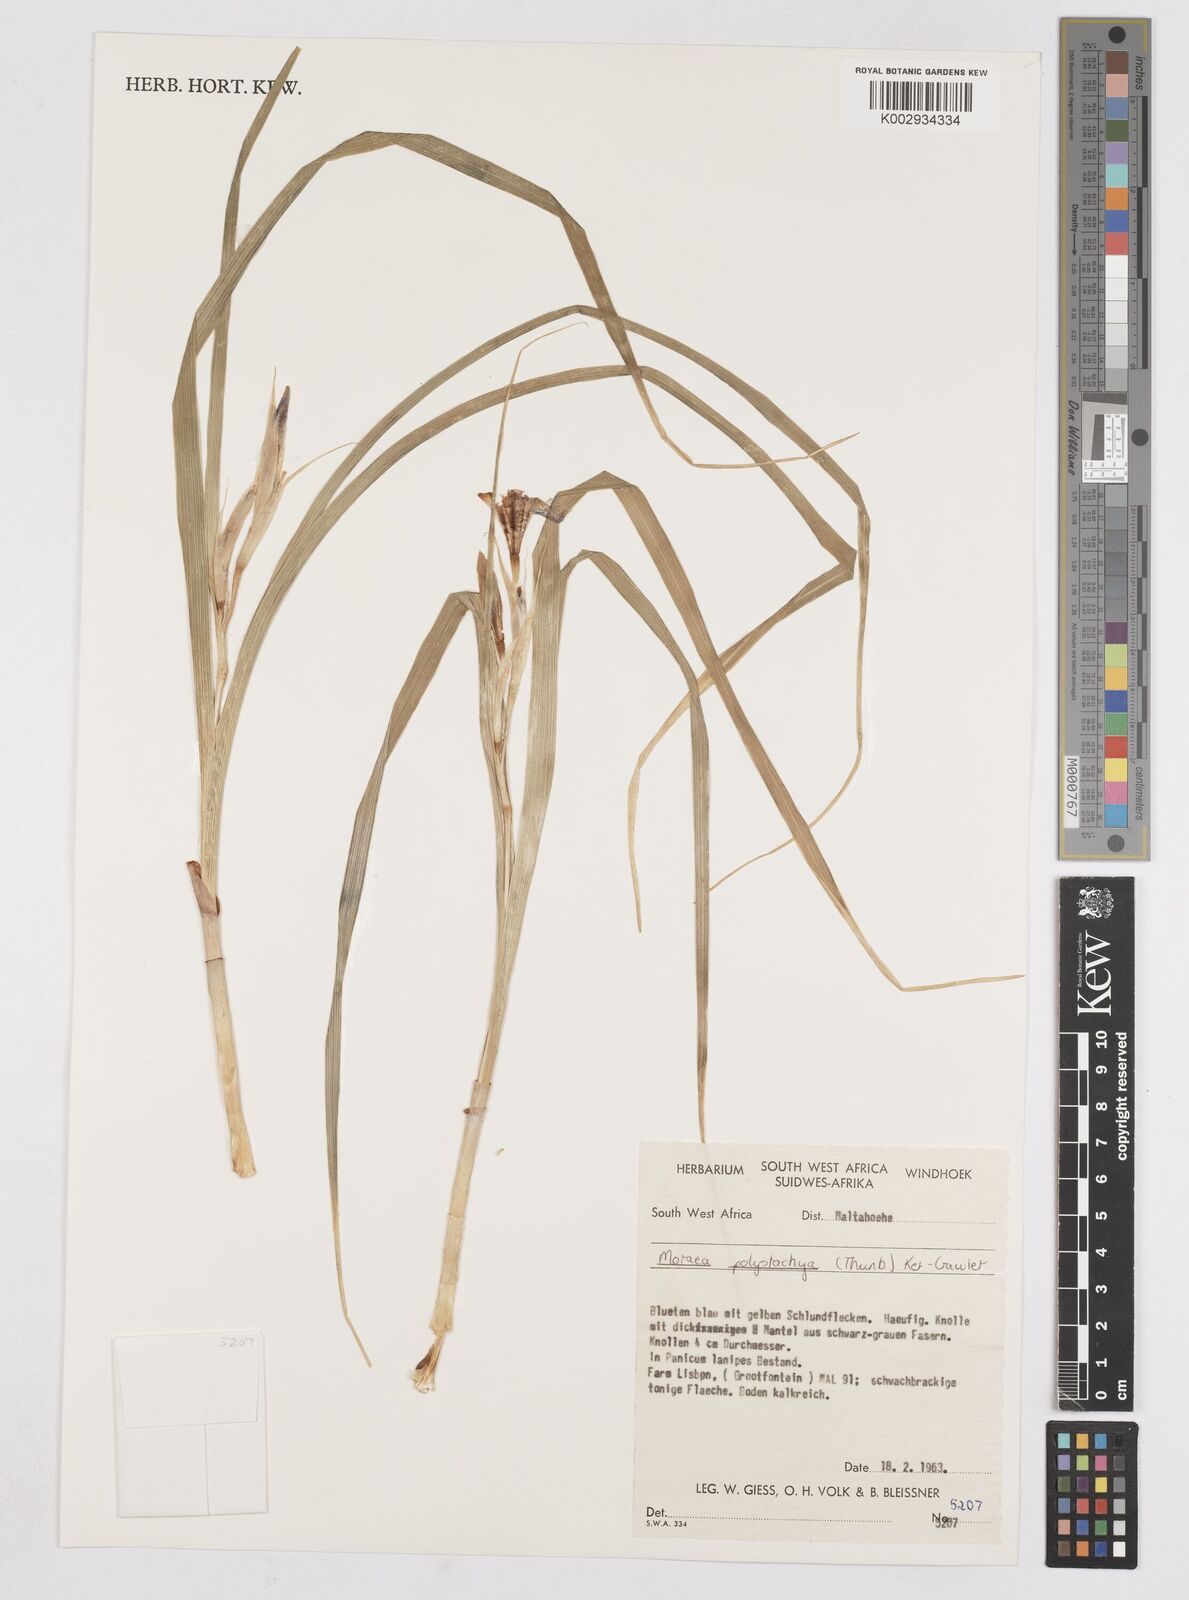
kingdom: Plantae
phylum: Tracheophyta
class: Liliopsida
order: Asparagales
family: Iridaceae
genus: Moraea
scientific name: Moraea polystachya
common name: Blue-tulip
